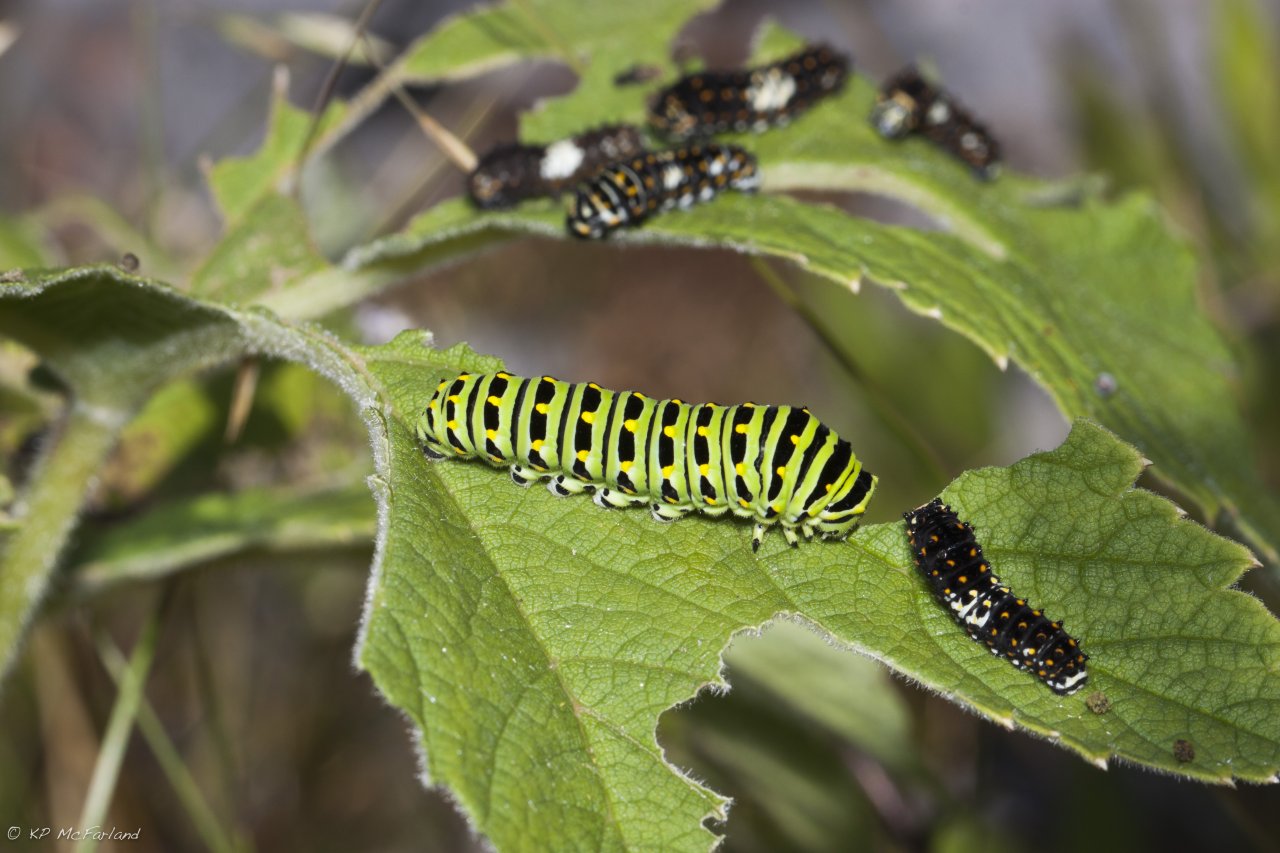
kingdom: Animalia
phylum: Arthropoda
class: Insecta
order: Lepidoptera
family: Papilionidae
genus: Papilio
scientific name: Papilio brevicauda
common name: Short-tailed Swallowtail
